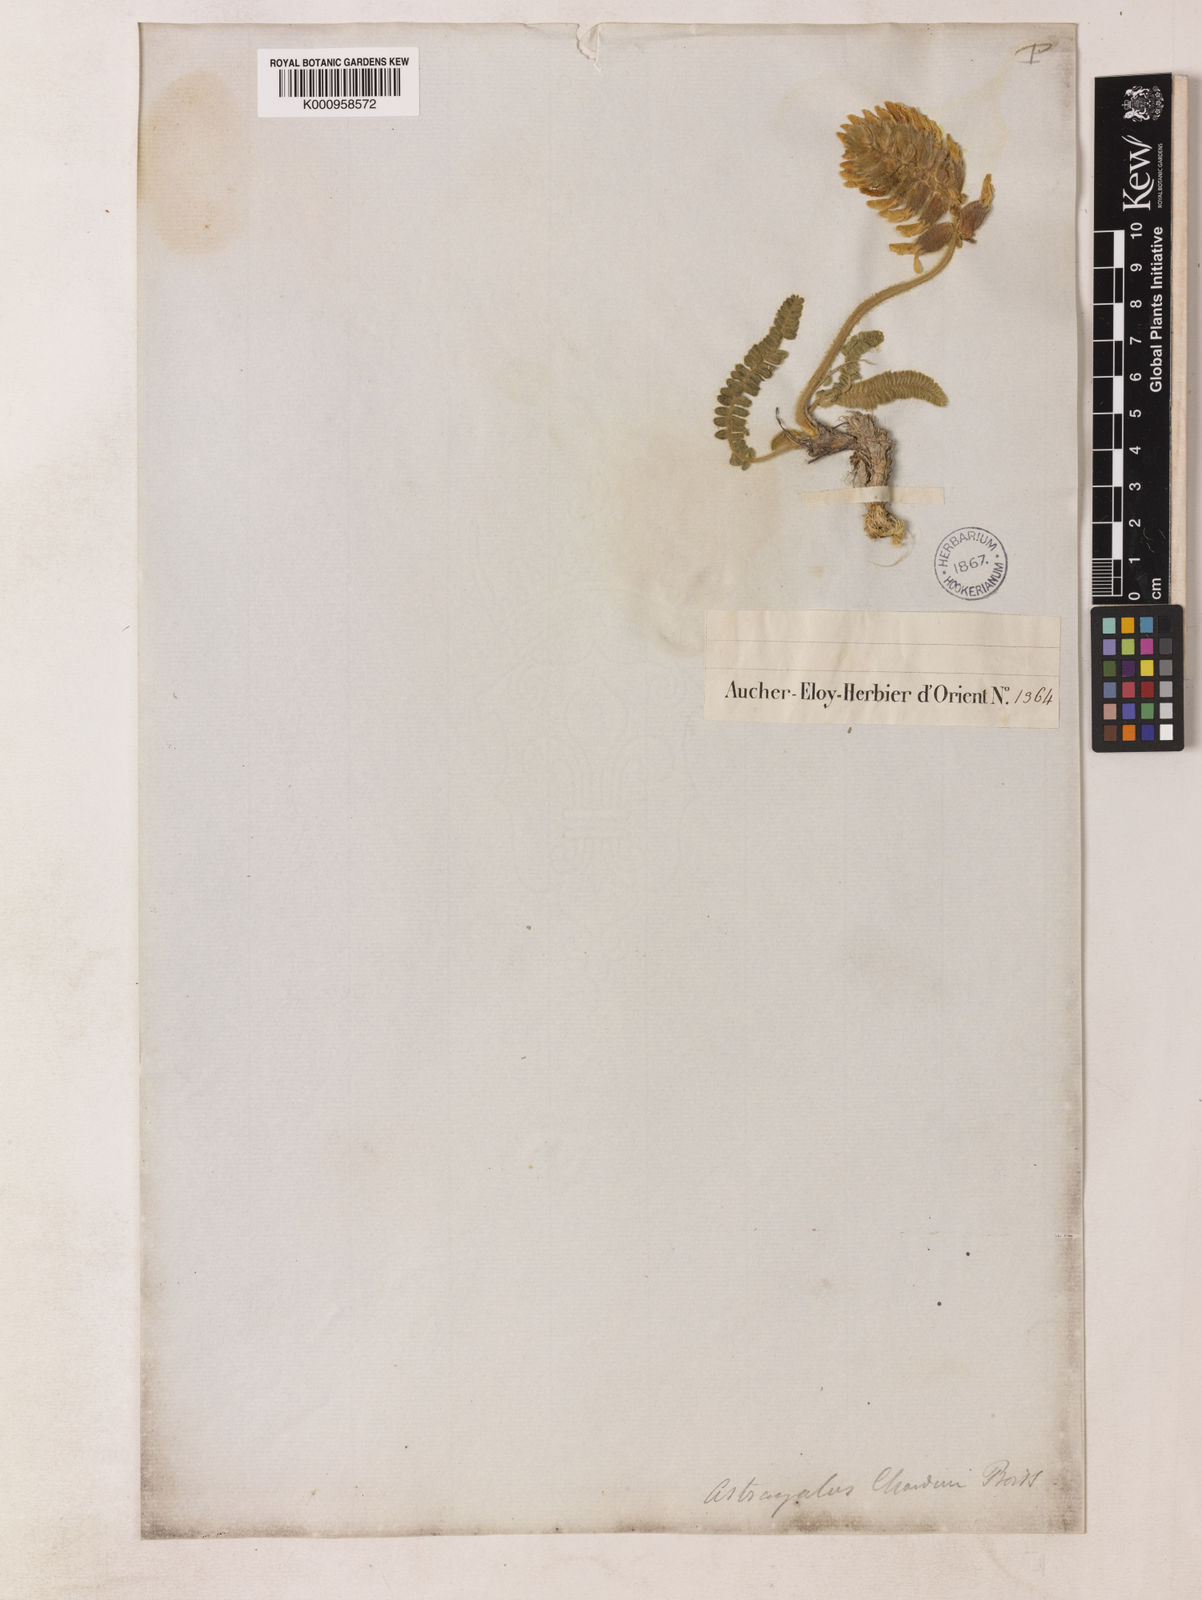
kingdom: Plantae
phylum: Tracheophyta
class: Magnoliopsida
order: Fabales
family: Fabaceae
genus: Astragalus
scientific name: Astragalus chardinii
